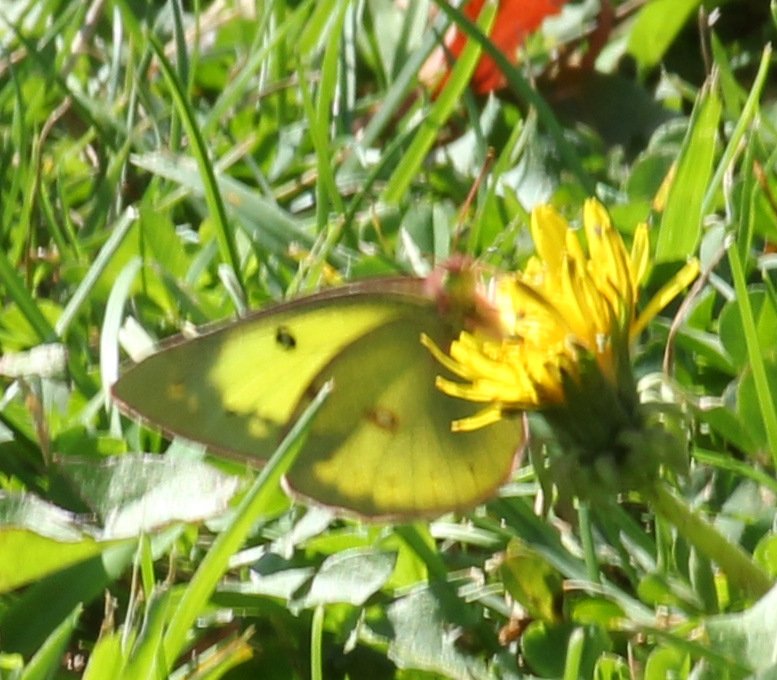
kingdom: Animalia
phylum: Arthropoda
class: Insecta
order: Lepidoptera
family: Pieridae
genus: Colias
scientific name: Colias philodice
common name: Clouded Sulphur
